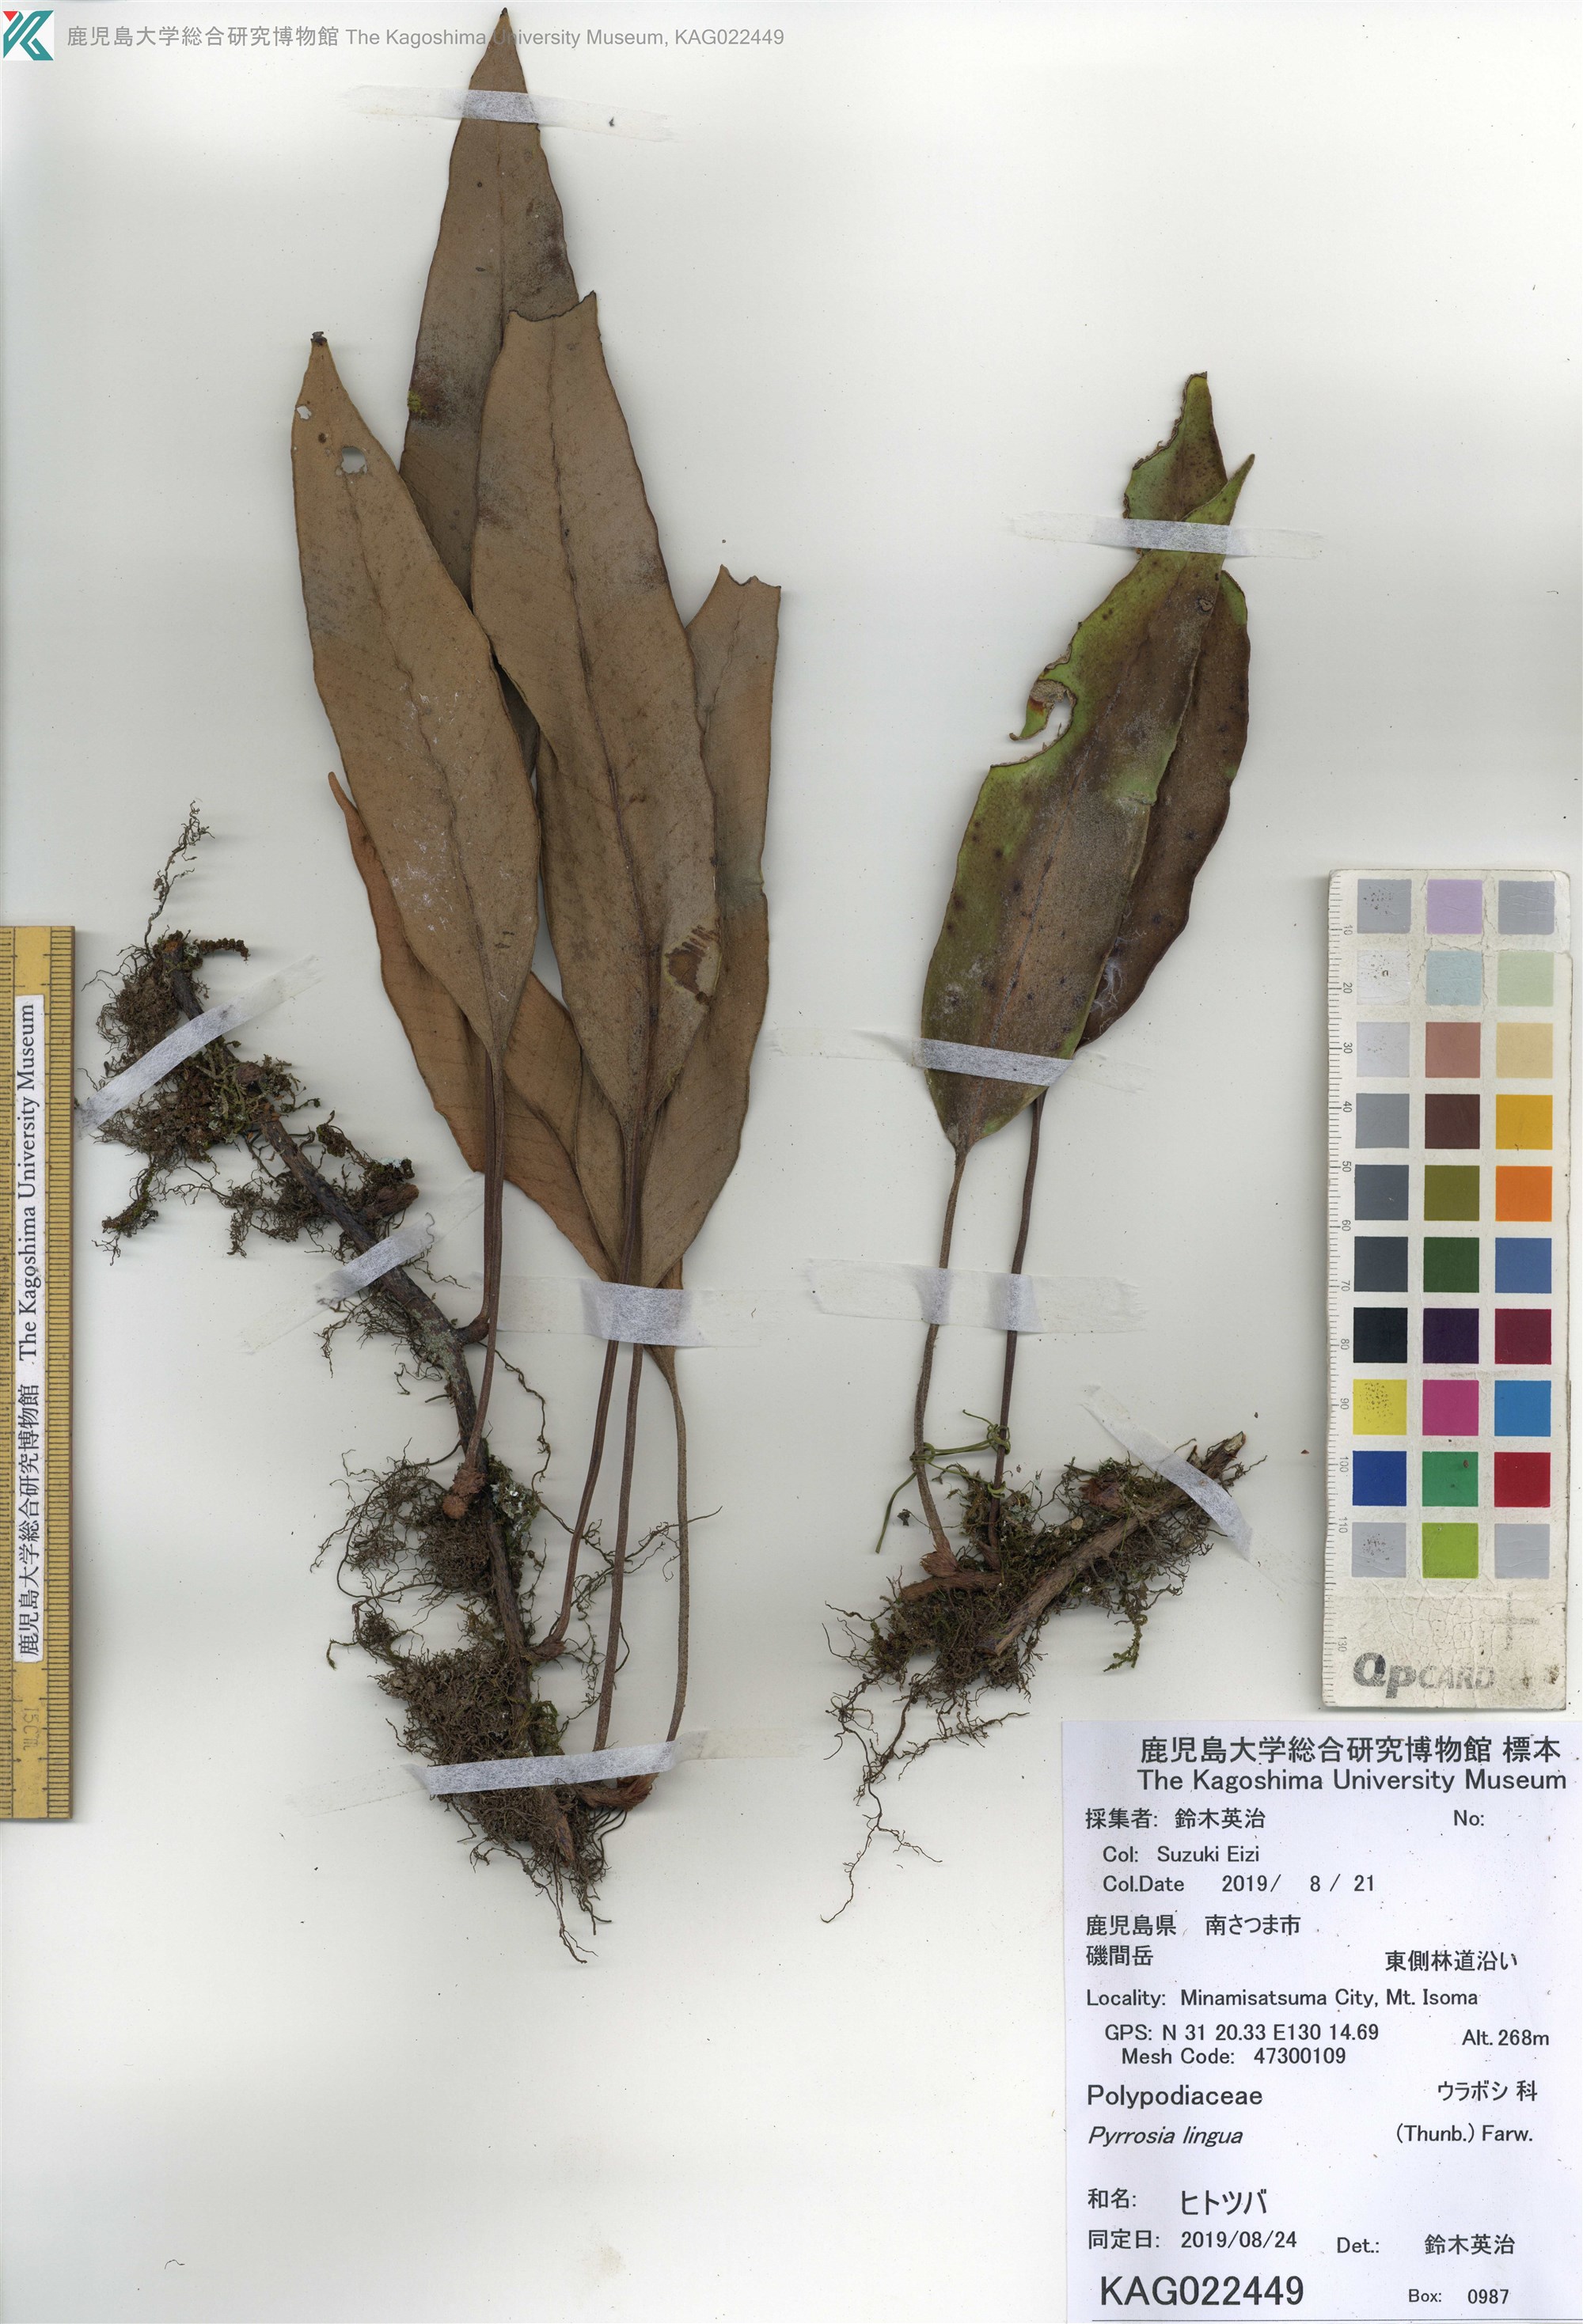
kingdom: Plantae
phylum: Tracheophyta
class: Polypodiopsida
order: Polypodiales
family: Polypodiaceae
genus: Pyrrosia
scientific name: Pyrrosia lingua
